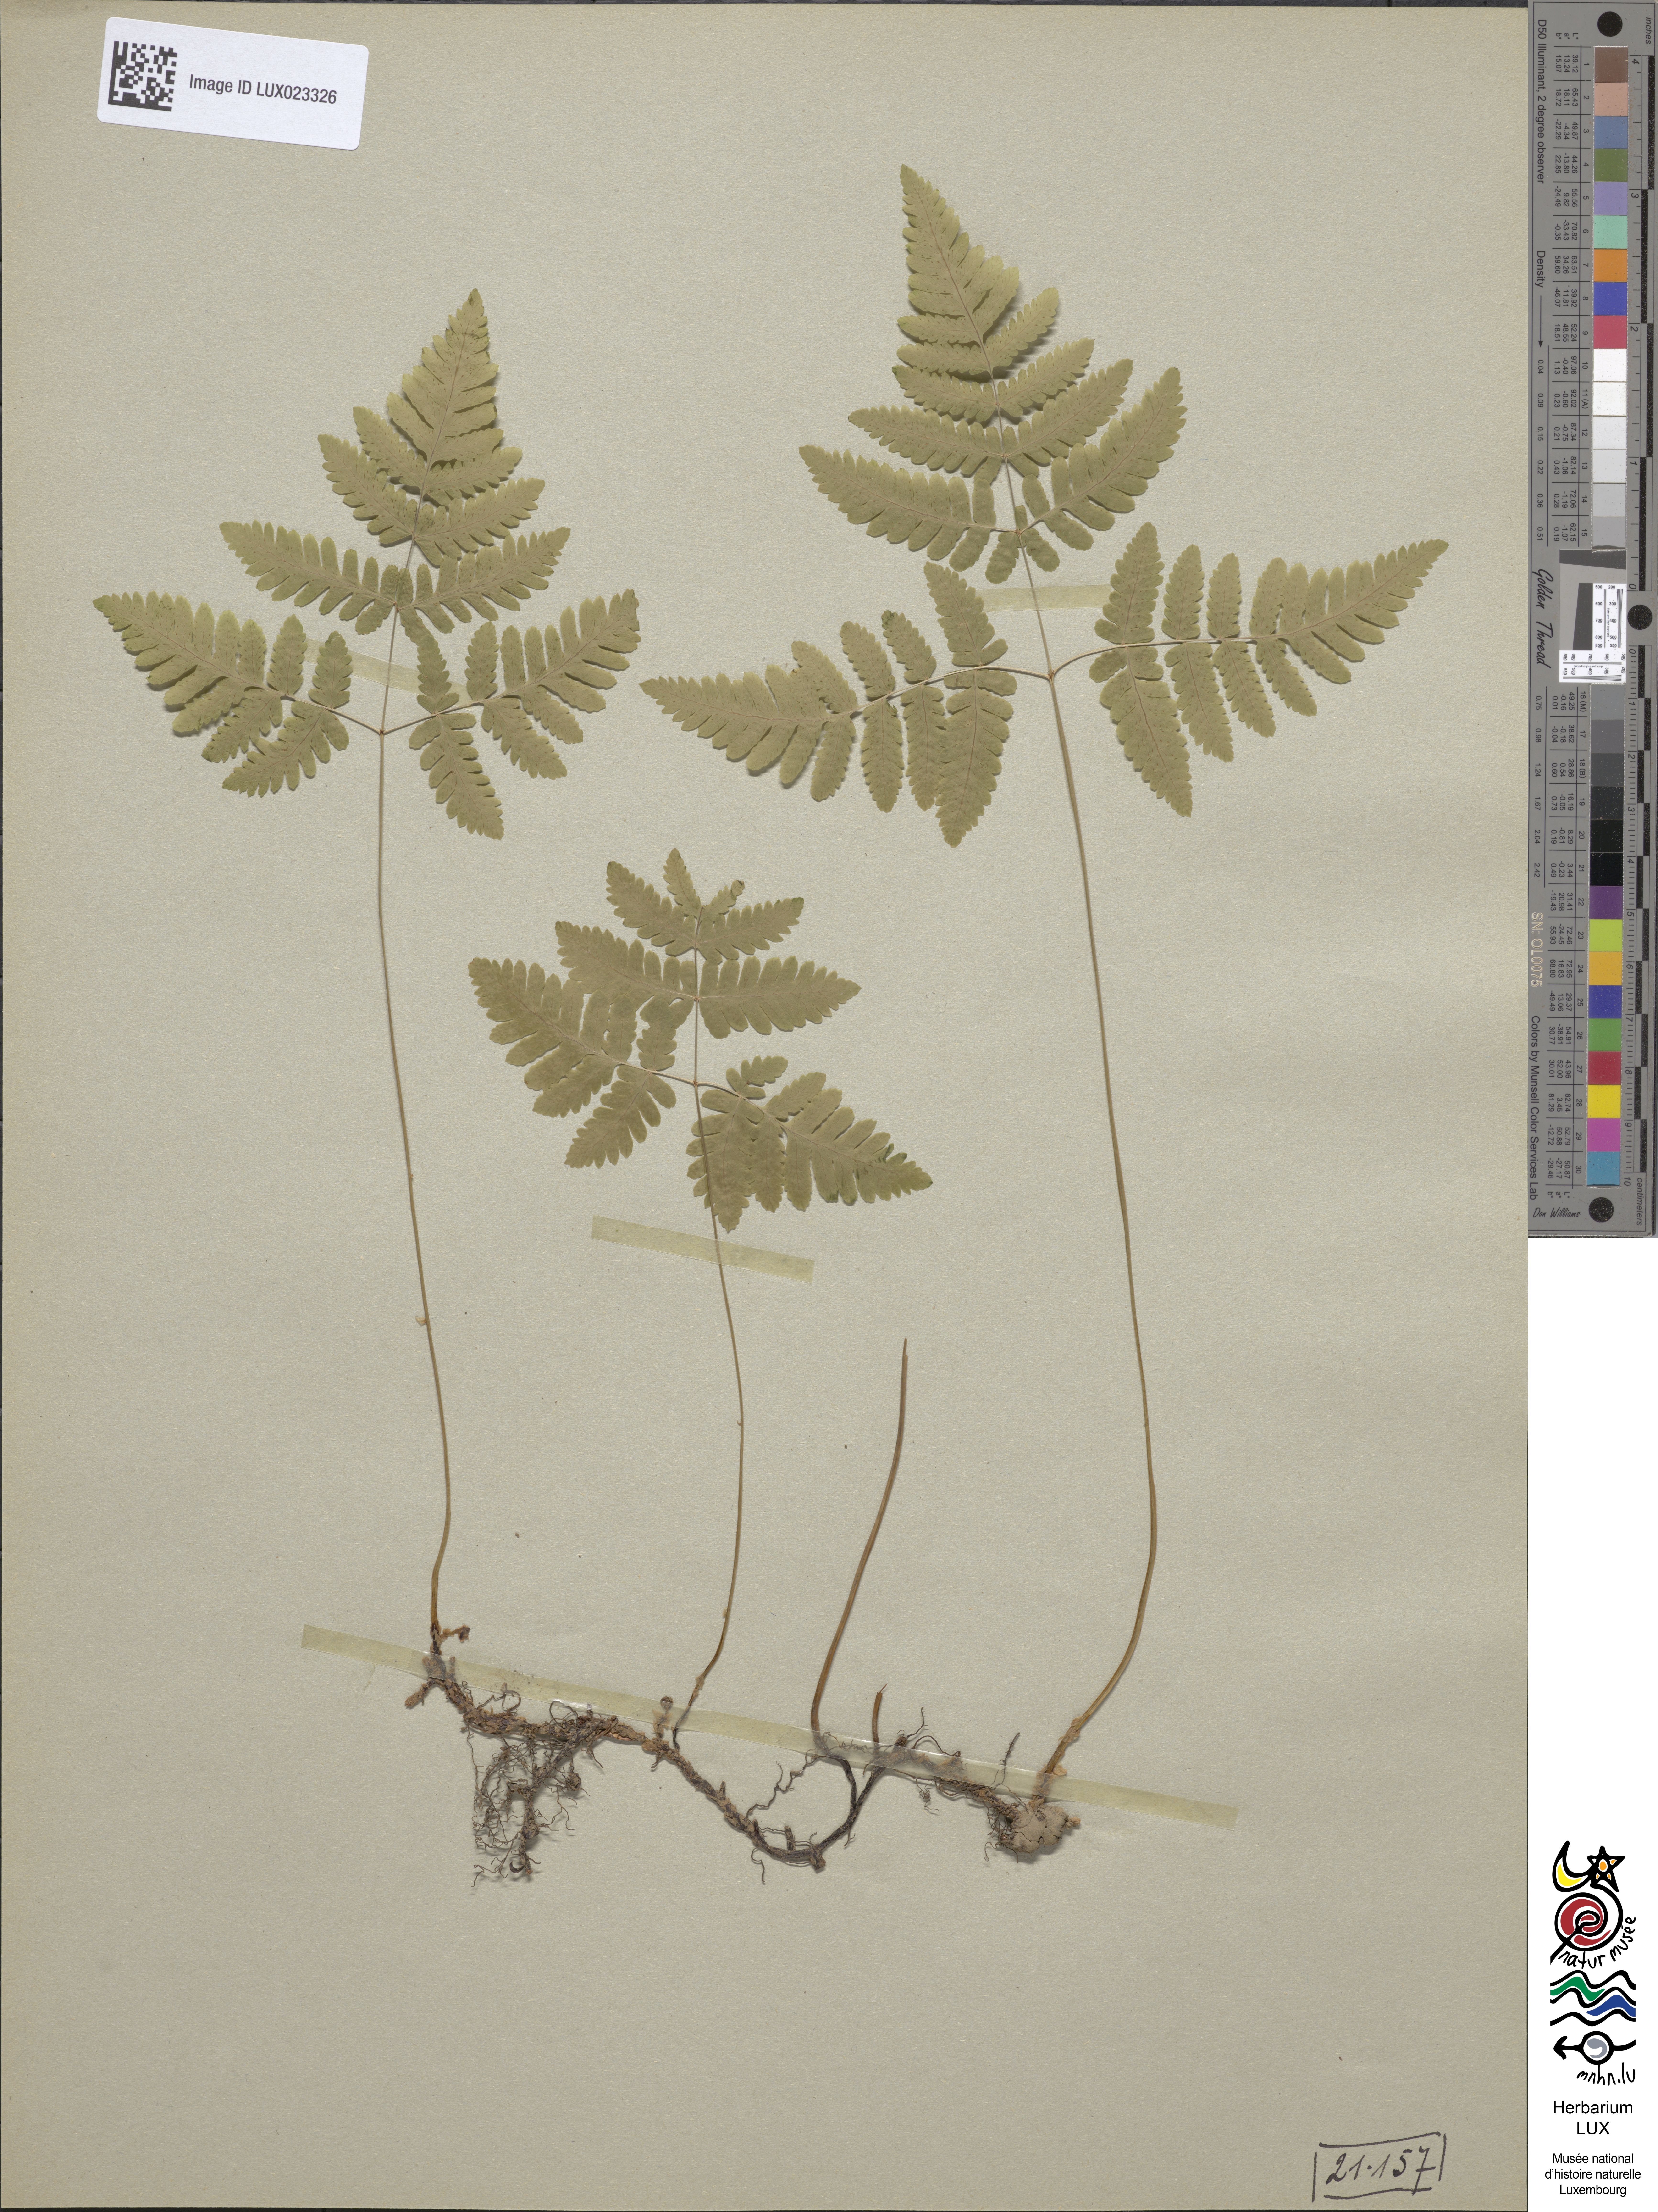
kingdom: Plantae
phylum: Tracheophyta
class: Polypodiopsida
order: Polypodiales
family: Cystopteridaceae
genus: Gymnocarpium
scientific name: Gymnocarpium dryopteris
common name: Oak fern
